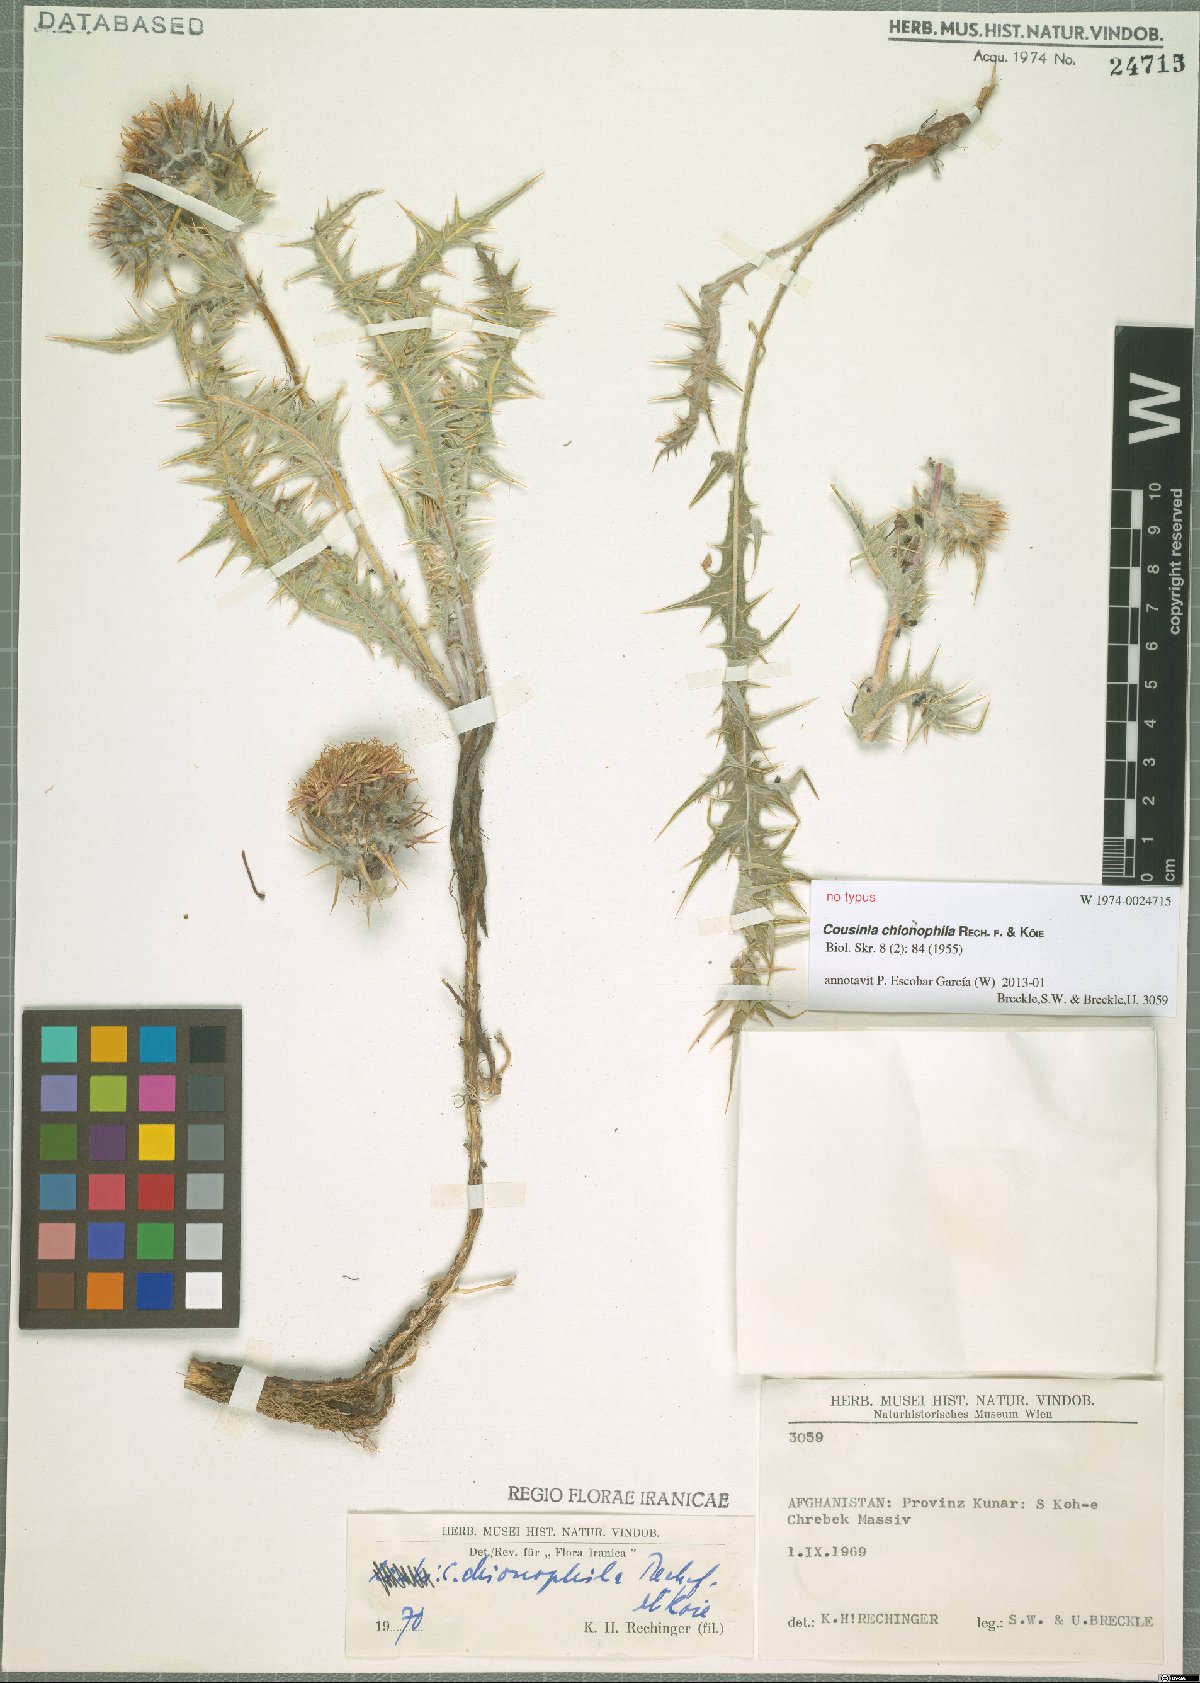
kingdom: Plantae
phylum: Tracheophyta
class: Magnoliopsida
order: Asterales
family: Asteraceae
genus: Cousinia
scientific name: Cousinia chionophila
